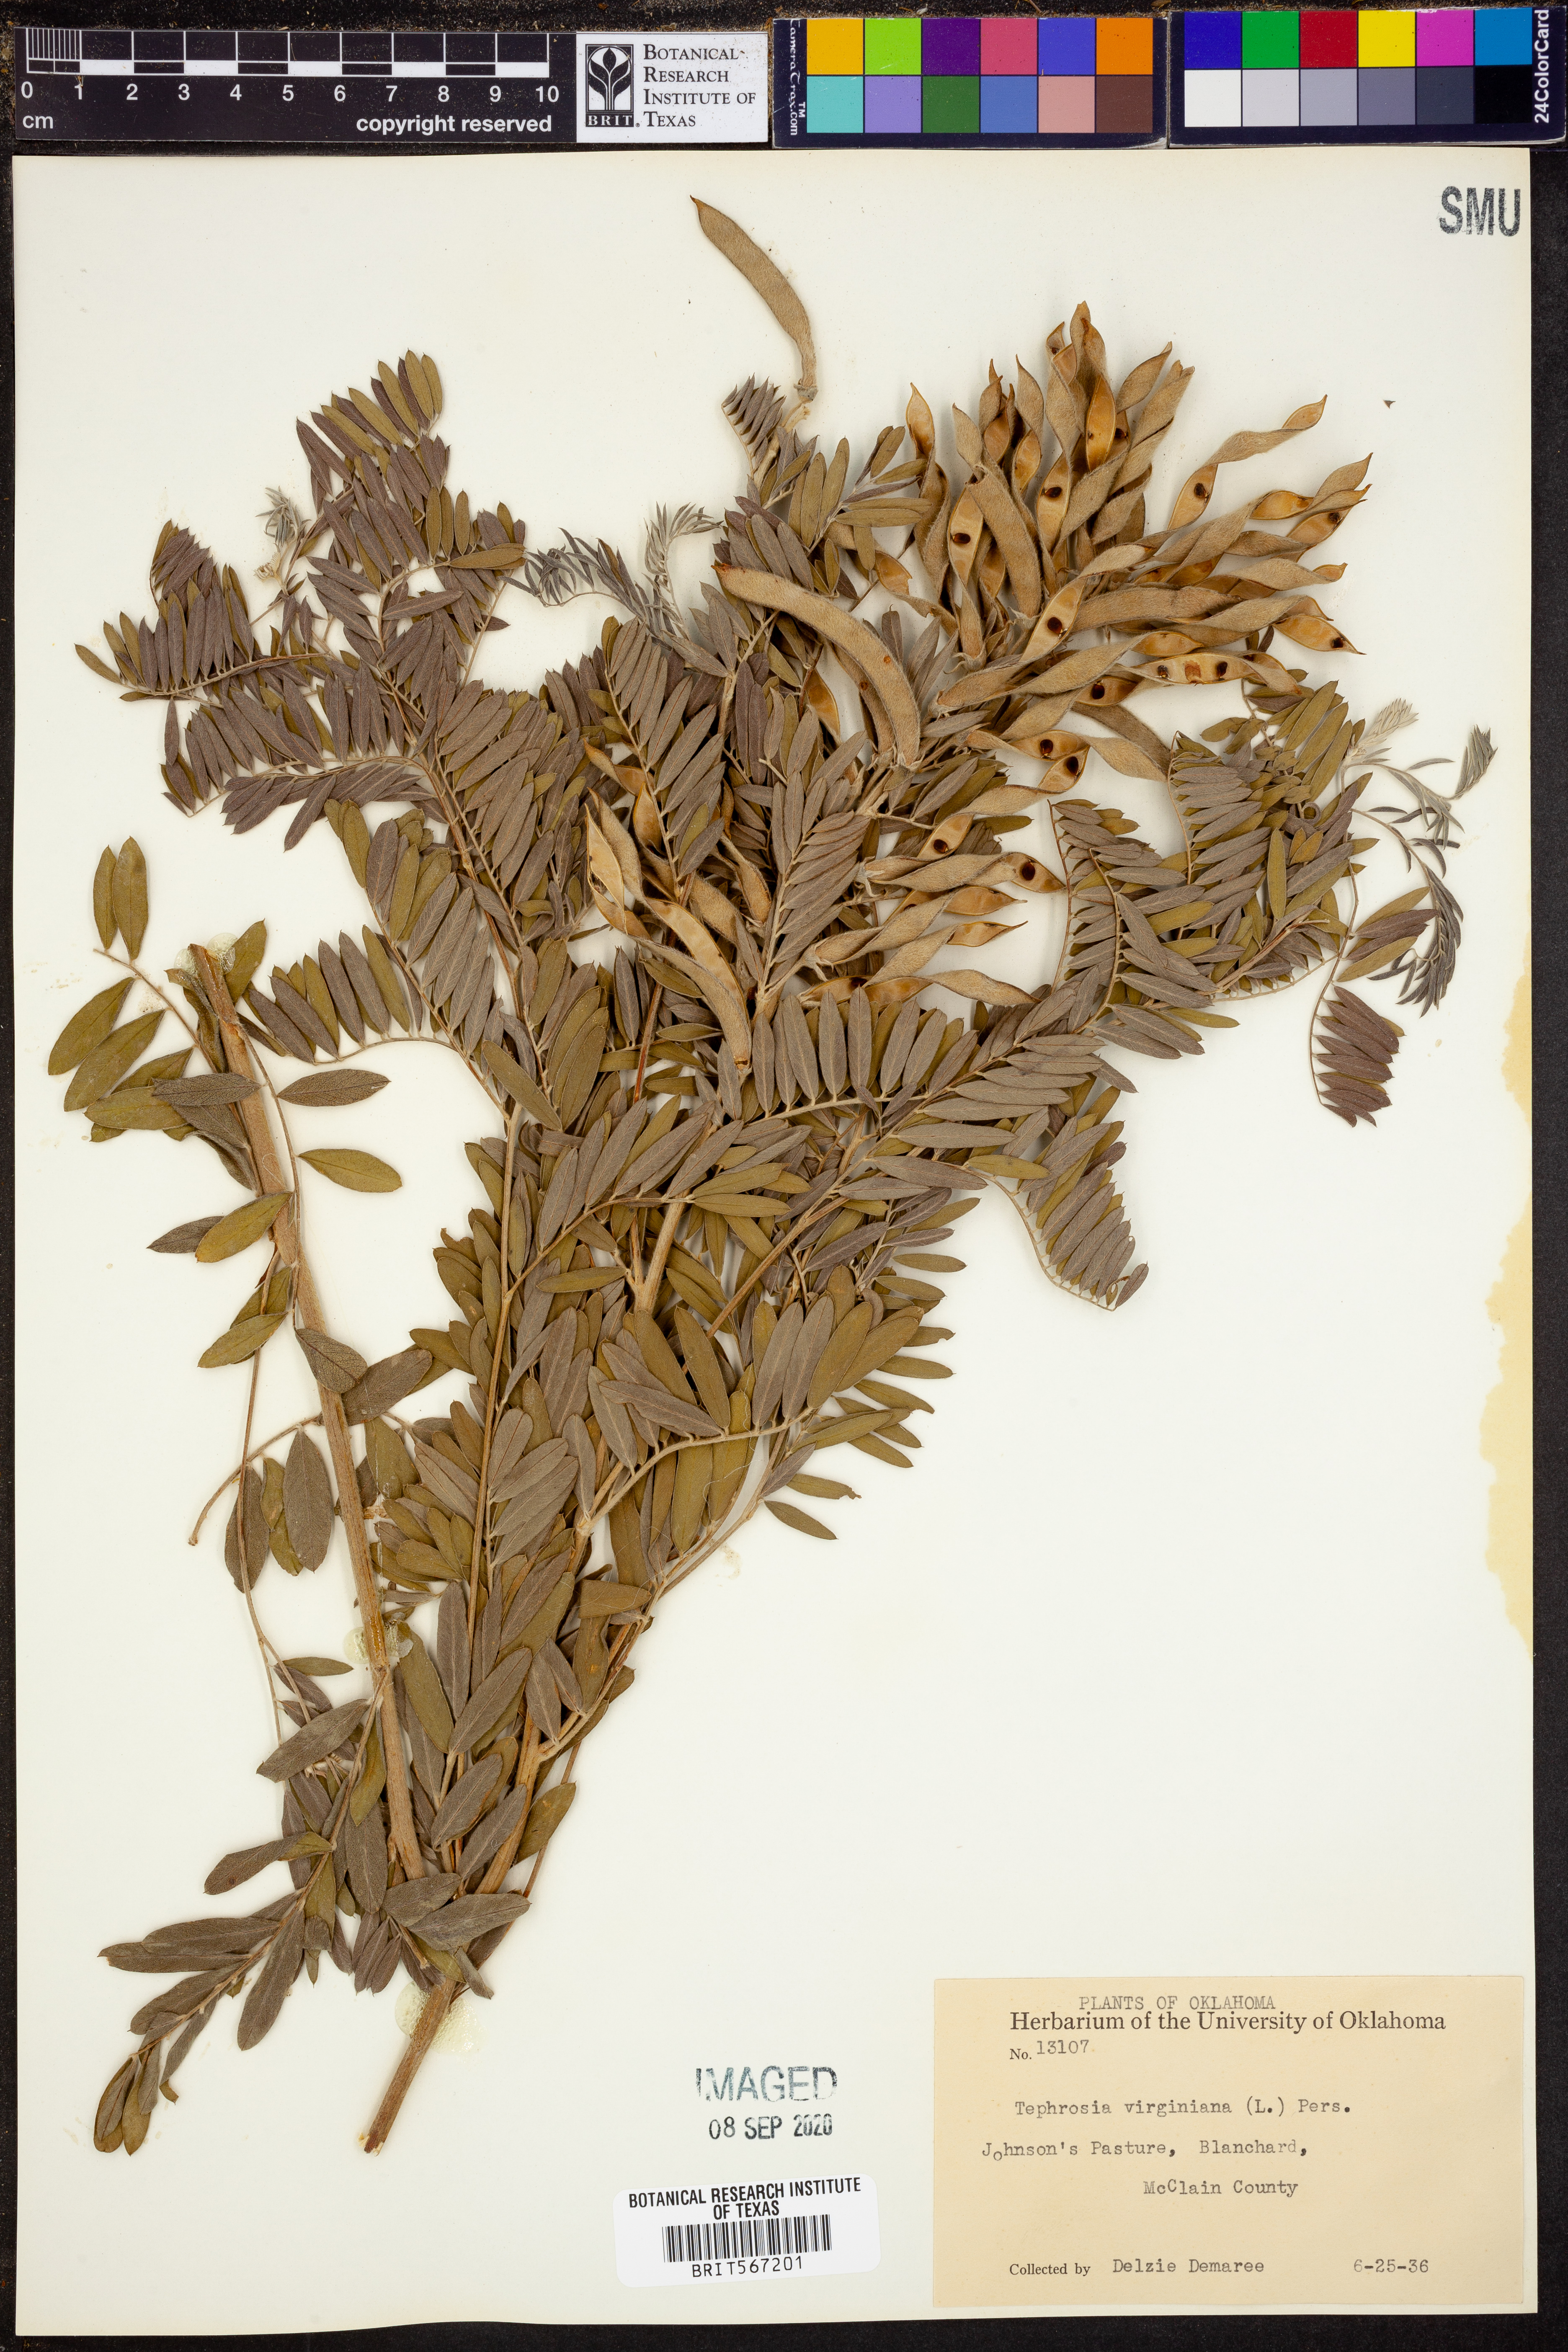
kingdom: Plantae
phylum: Tracheophyta
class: Magnoliopsida
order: Fabales
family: Fabaceae
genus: Tephrosia
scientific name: Tephrosia virginiana
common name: Rabbit-pea
